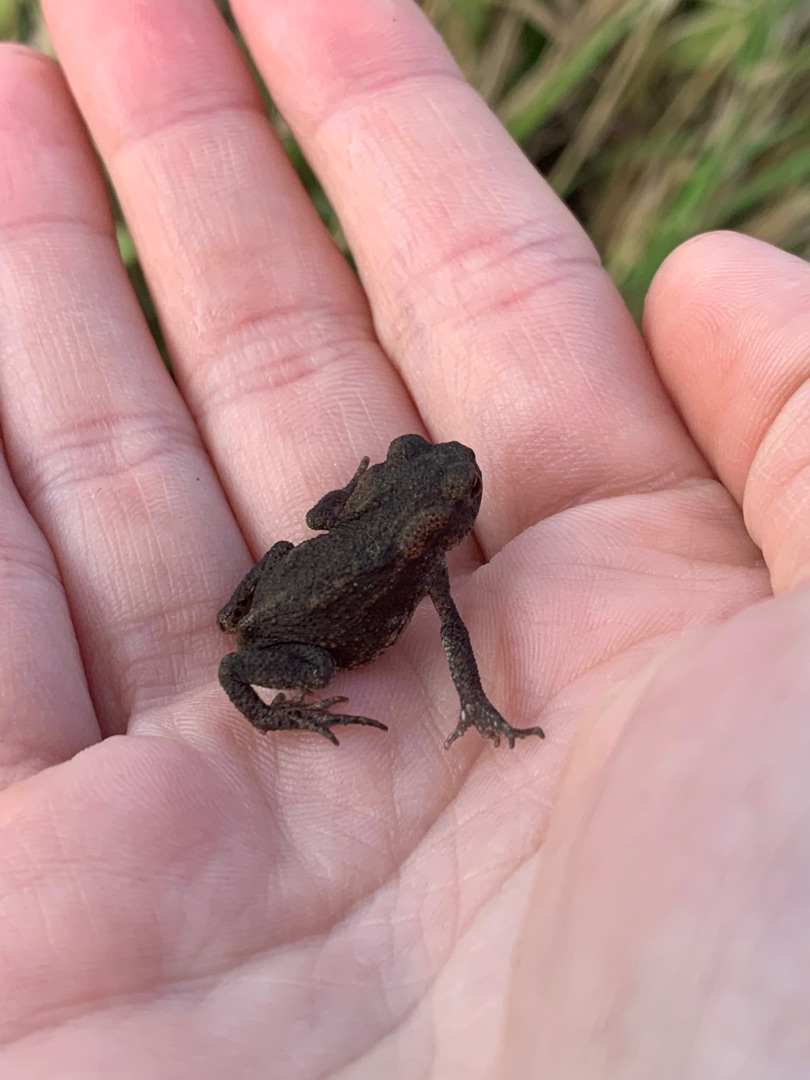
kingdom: Animalia
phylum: Chordata
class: Amphibia
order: Anura
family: Bufonidae
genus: Bufo
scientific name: Bufo bufo
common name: Skrubtudse
